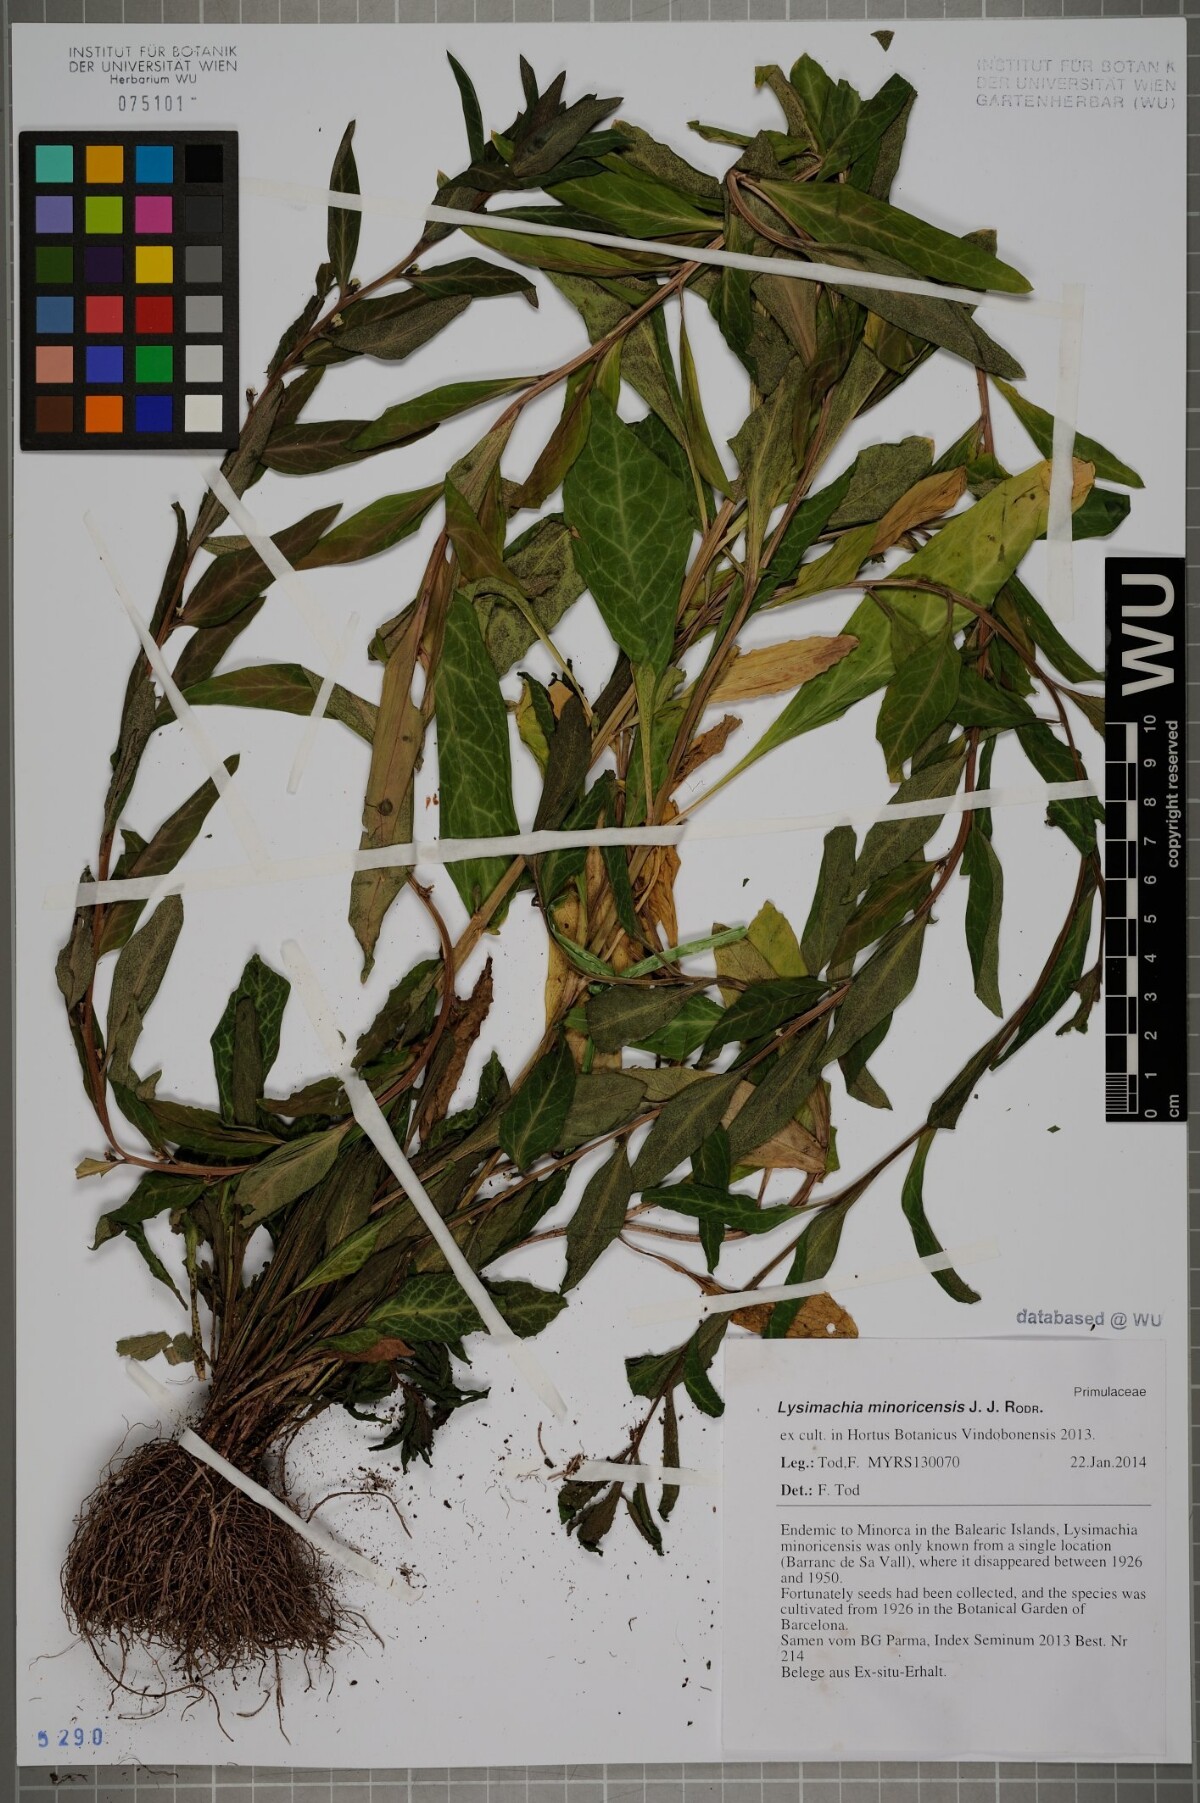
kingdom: Plantae
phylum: Tracheophyta
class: Magnoliopsida
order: Ericales
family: Primulaceae
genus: Lysimachia
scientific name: Lysimachia minoricensis
